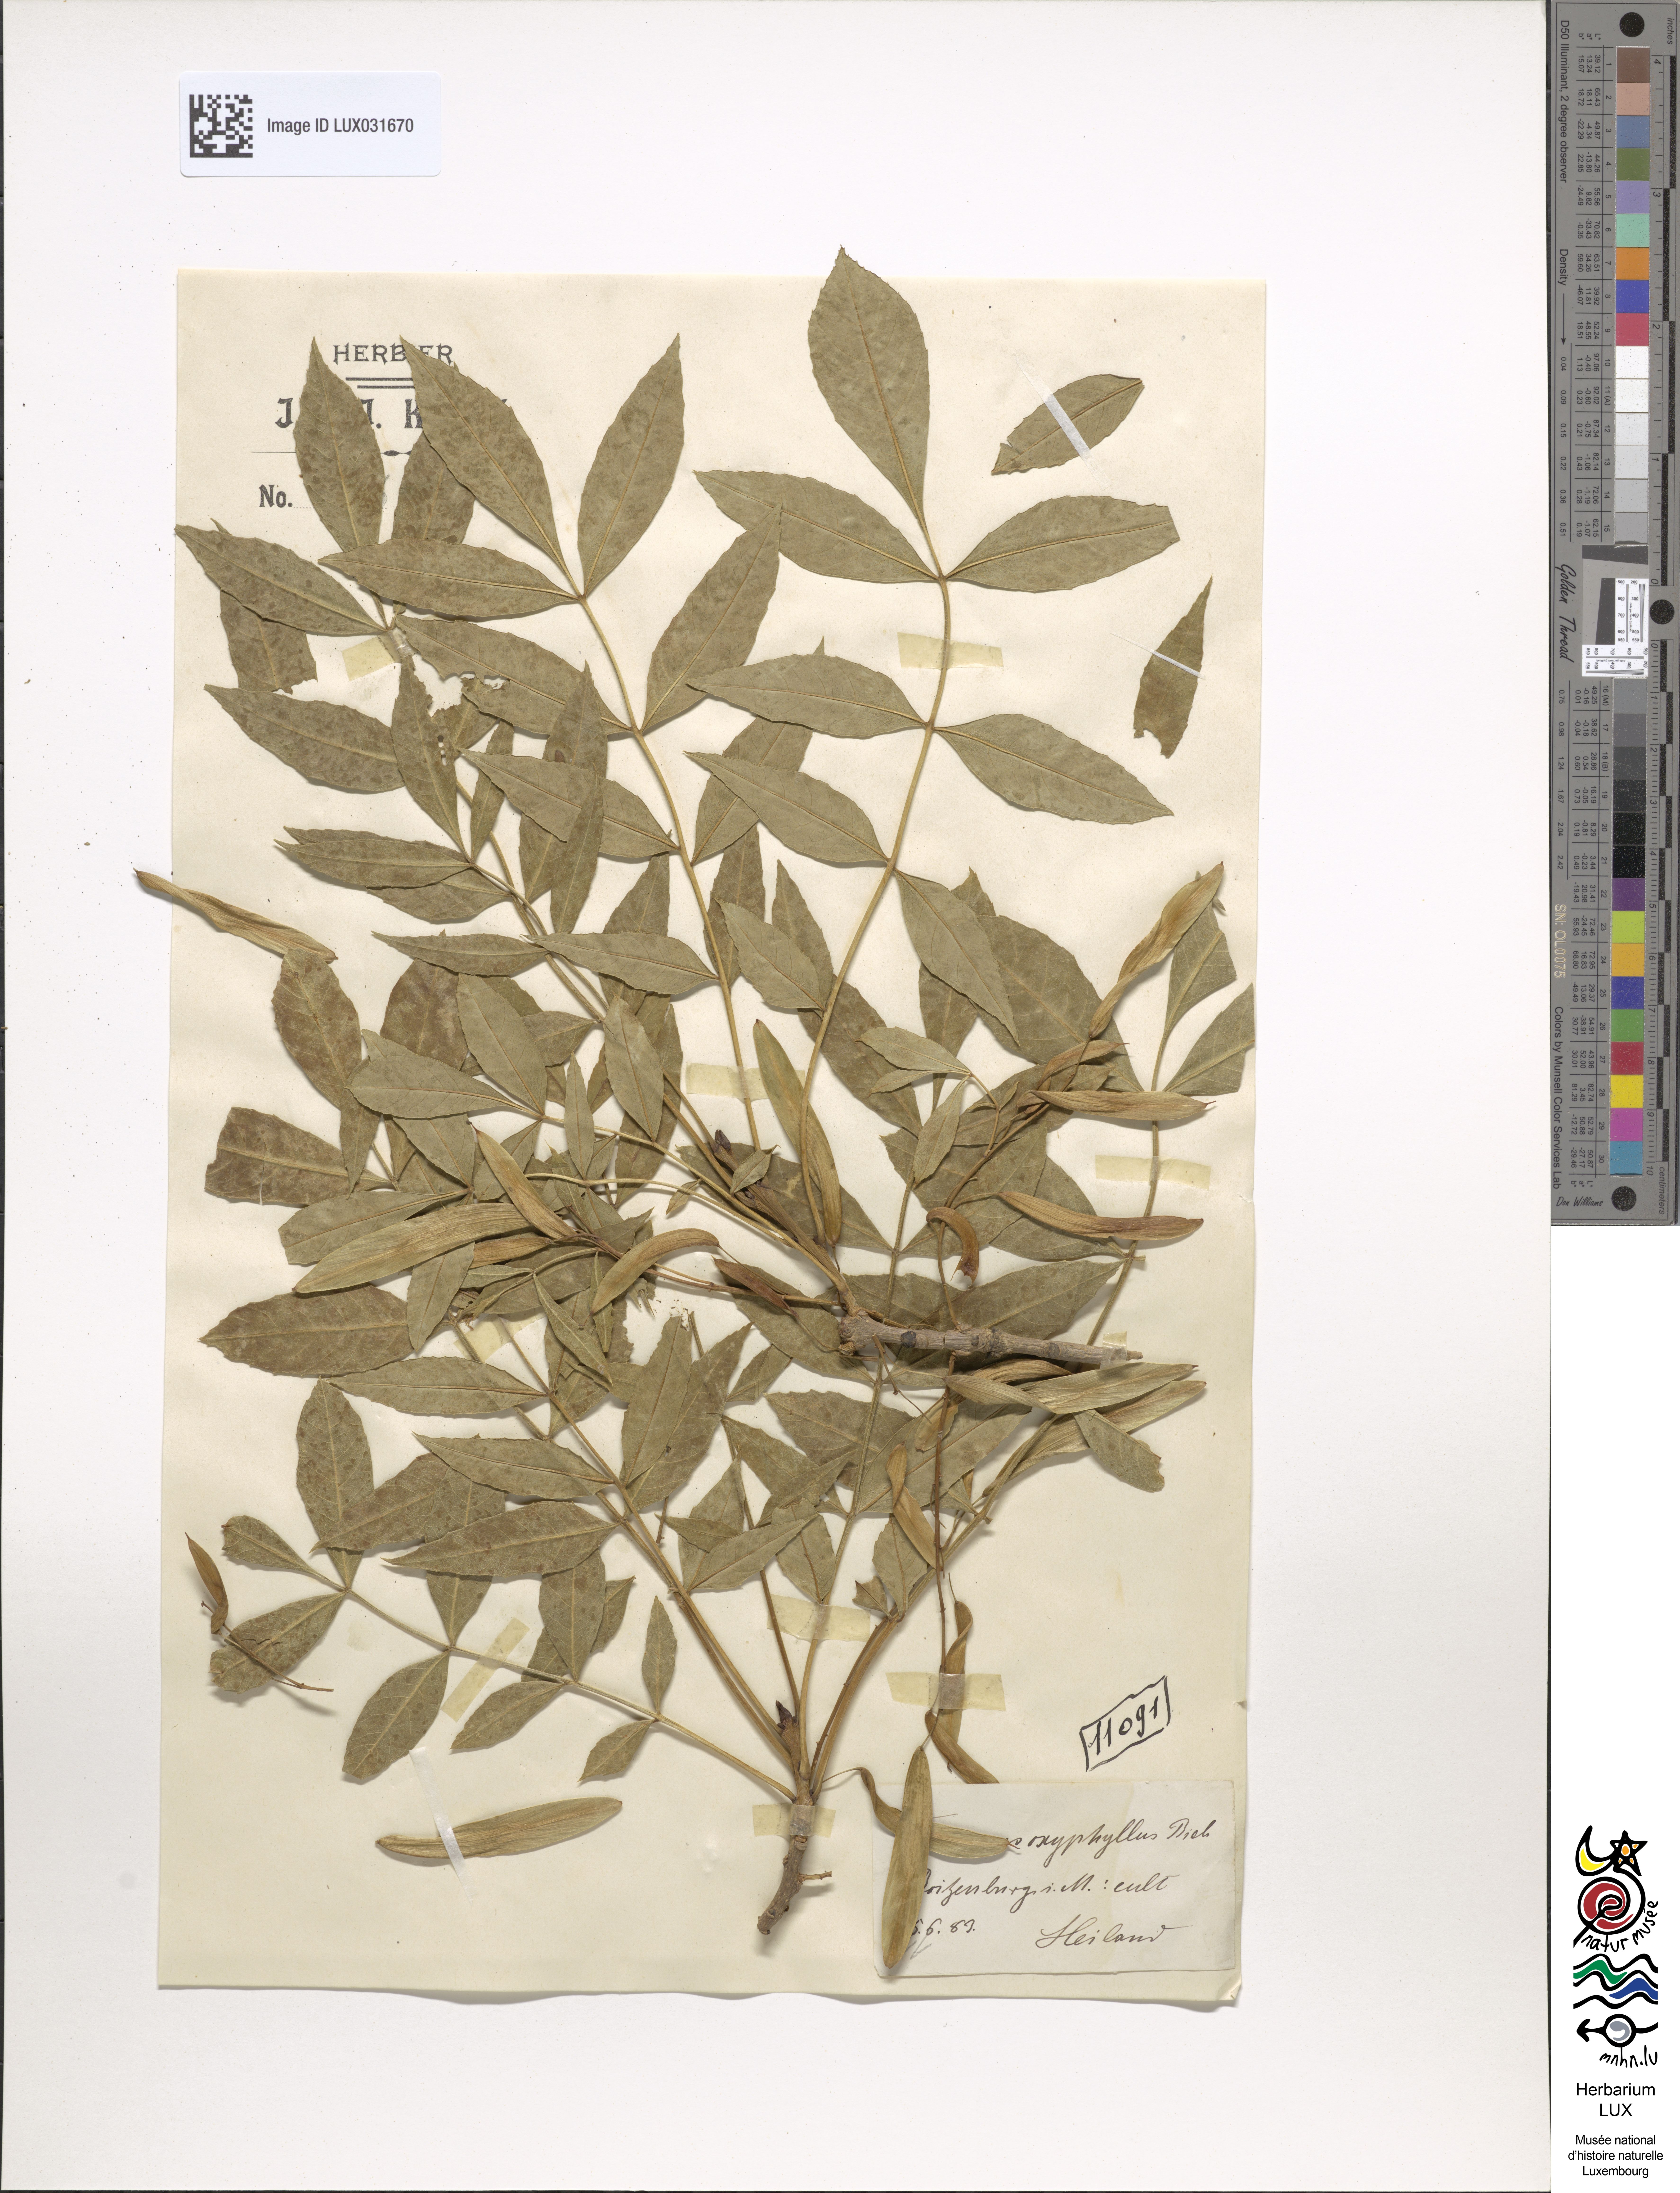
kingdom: Plantae
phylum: Tracheophyta
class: Magnoliopsida
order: Lamiales
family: Oleaceae
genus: Fraxinus
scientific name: Fraxinus angustifolia
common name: Narrow-leafed ash
